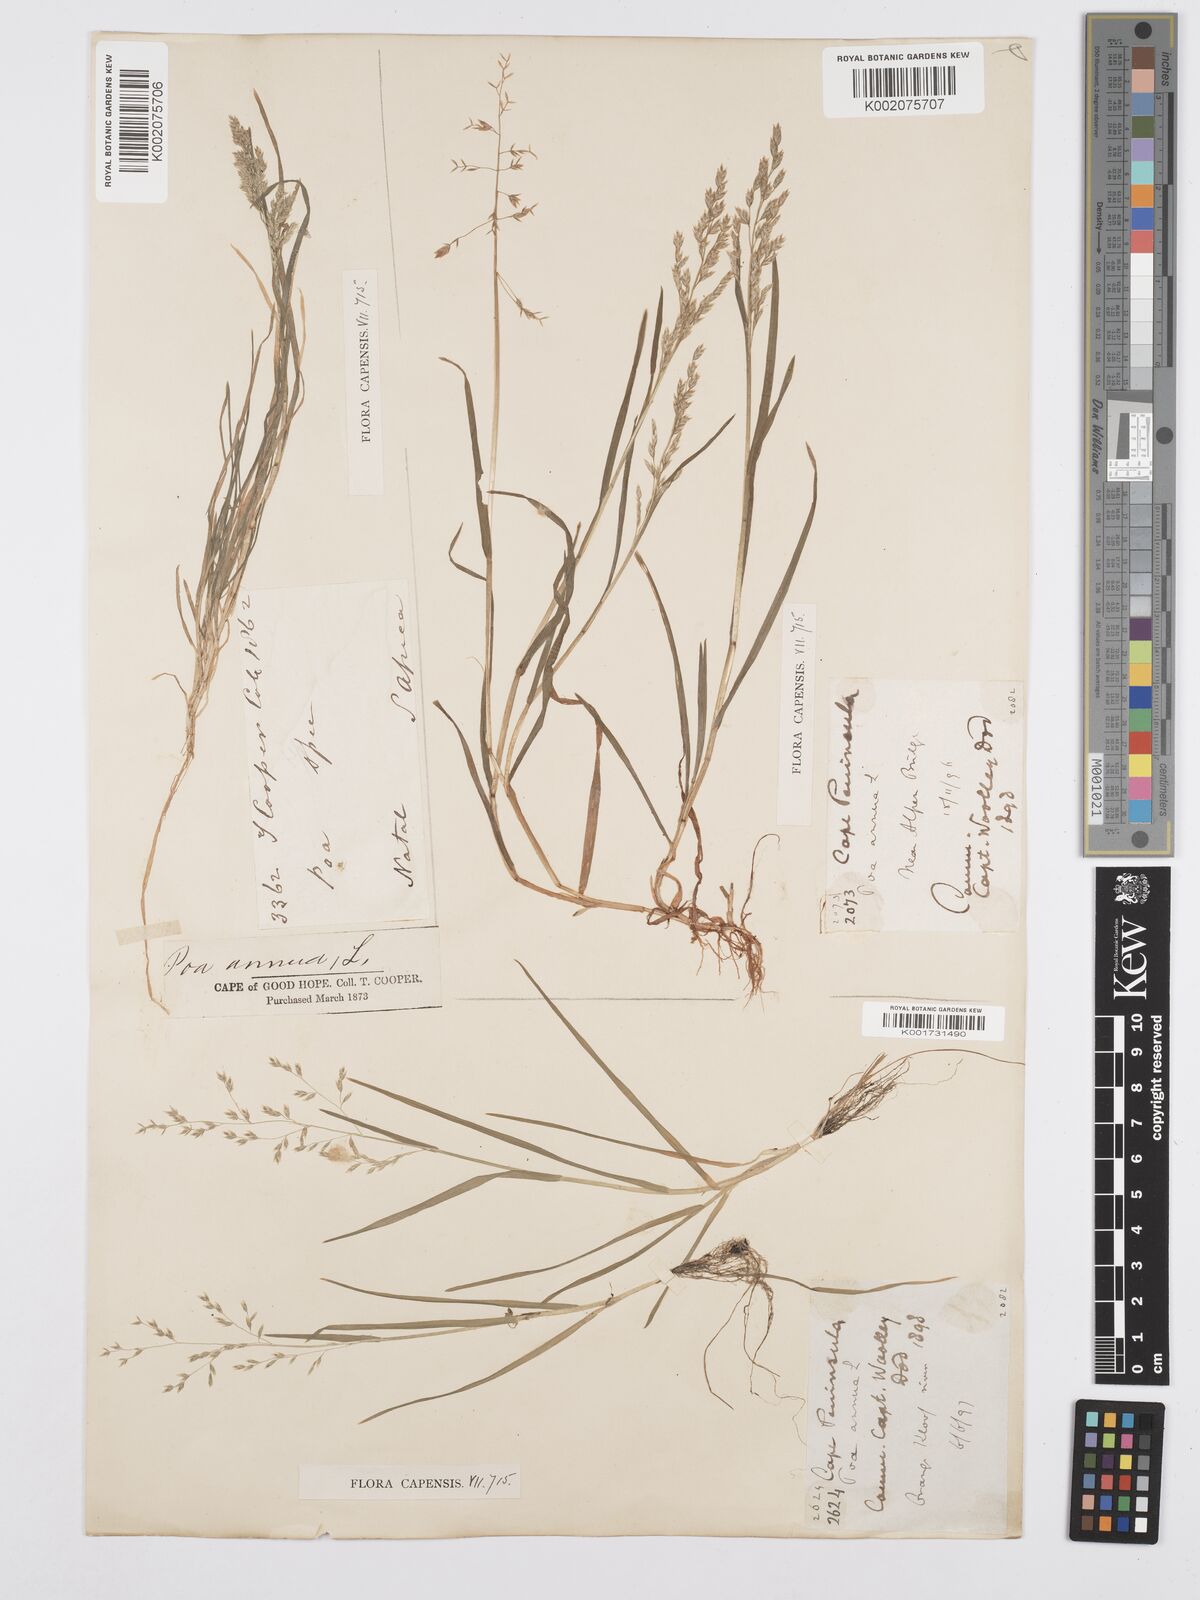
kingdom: Plantae
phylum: Tracheophyta
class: Liliopsida
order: Poales
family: Poaceae
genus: Poa
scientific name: Poa annua
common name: Annual bluegrass
